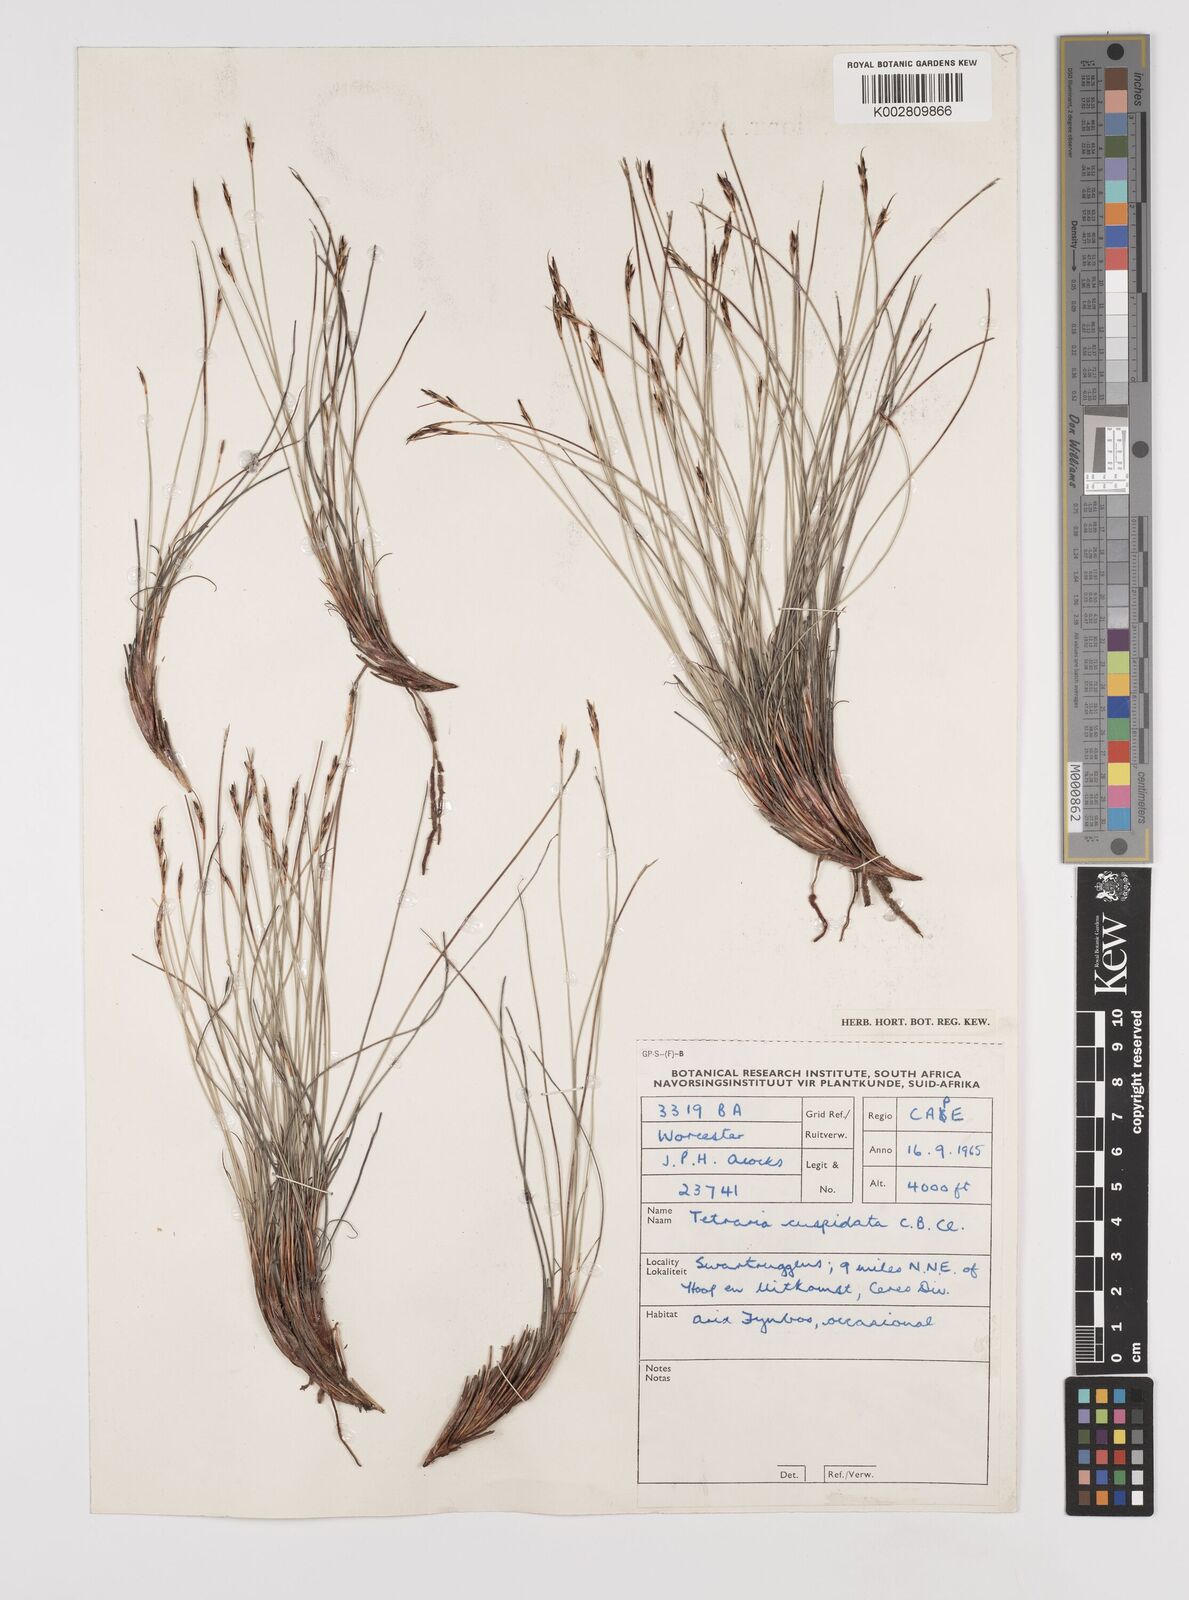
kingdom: Plantae
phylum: Tracheophyta
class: Liliopsida
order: Poales
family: Cyperaceae
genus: Schoenus
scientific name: Schoenus
